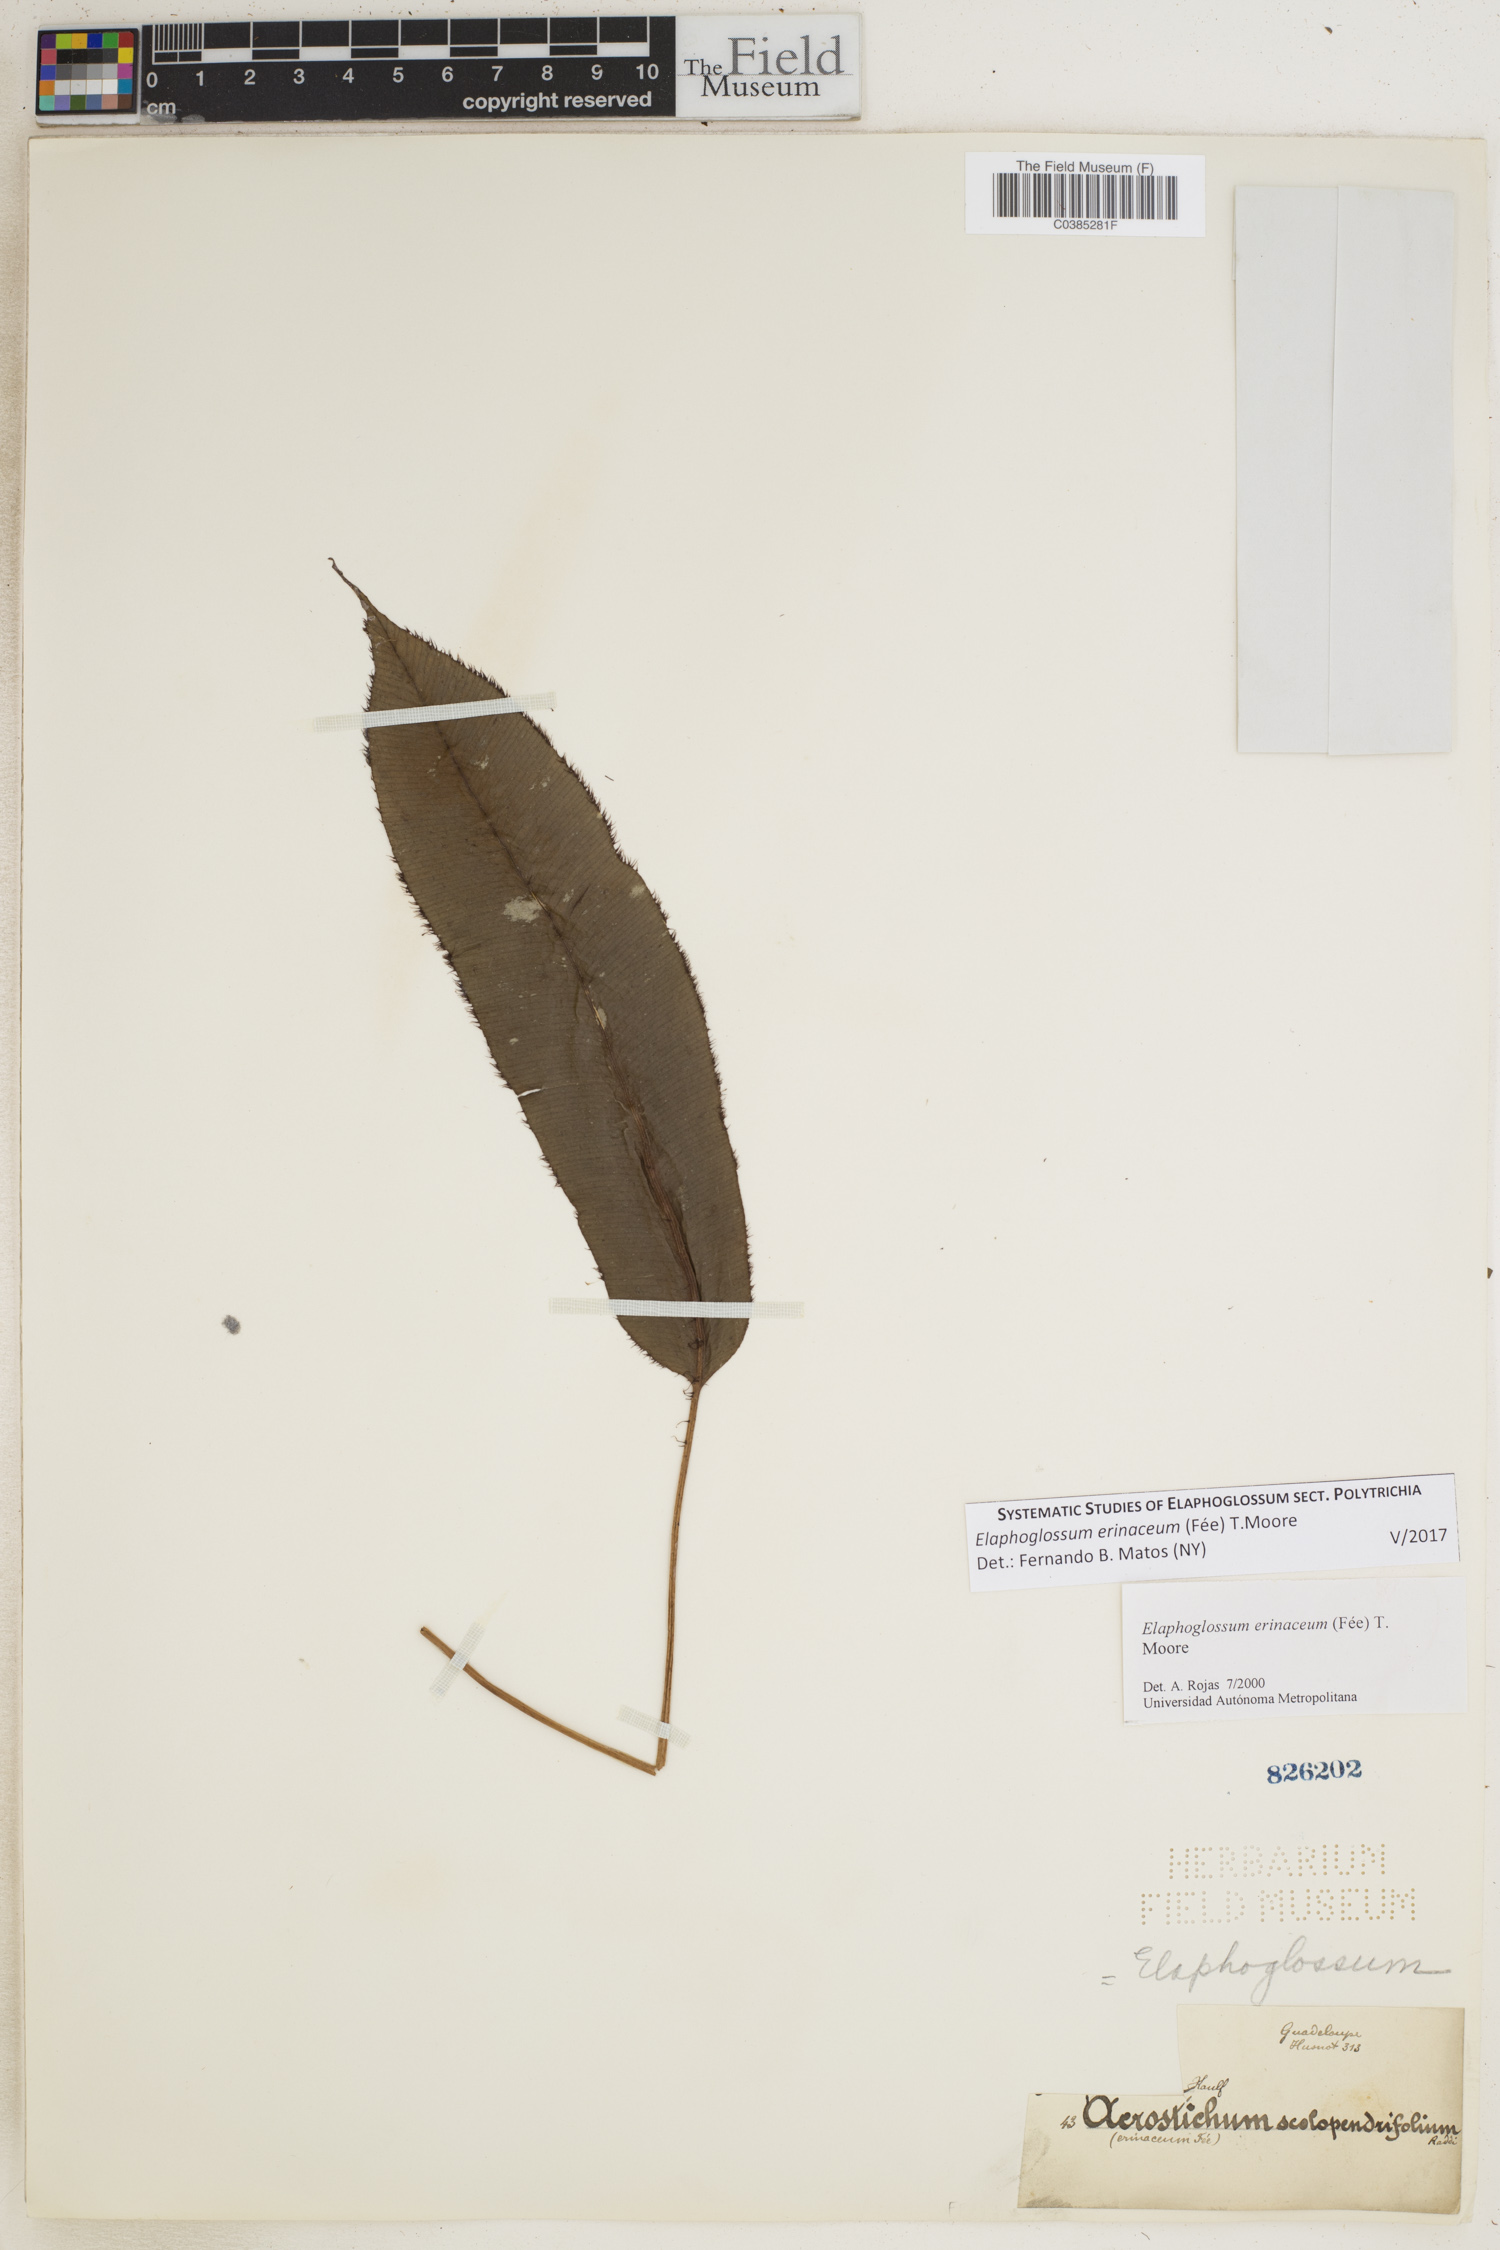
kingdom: Plantae
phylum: Tracheophyta
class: Polypodiopsida
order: Polypodiales
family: Dryopteridaceae
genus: Elaphoglossum
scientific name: Elaphoglossum erinaceum
